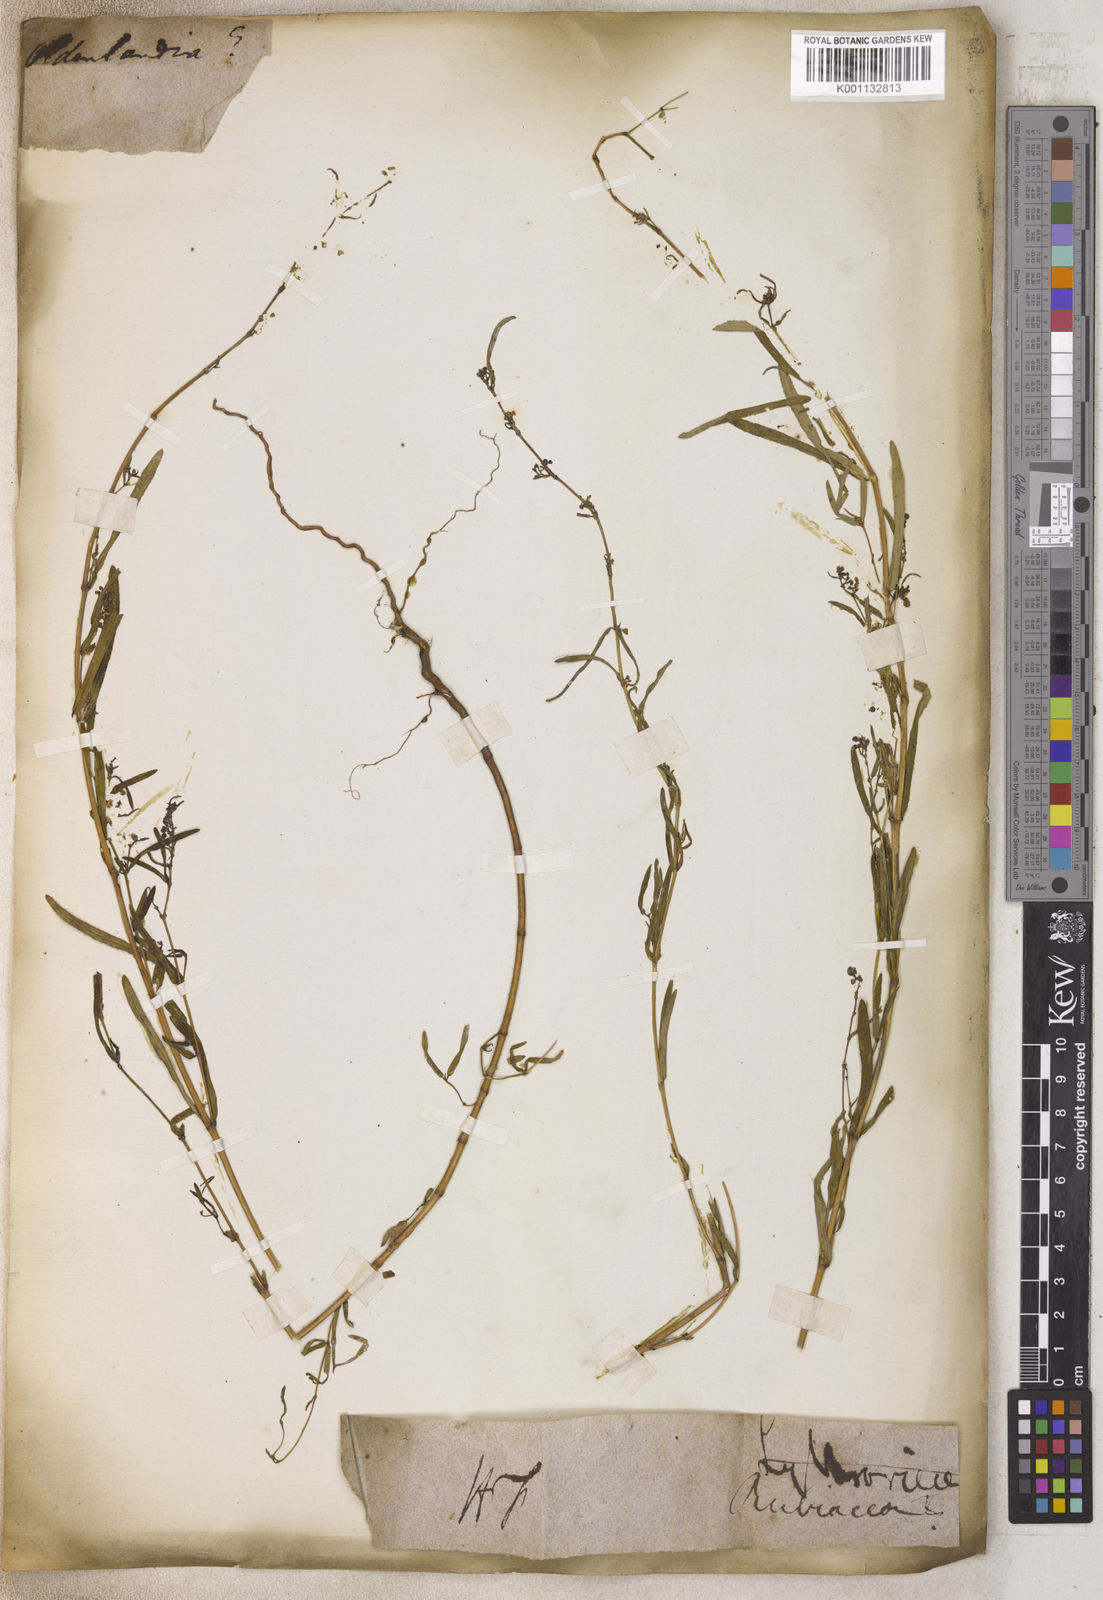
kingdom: Plantae
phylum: Tracheophyta
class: Magnoliopsida
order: Gentianales
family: Rubiaceae
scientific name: Rubiaceae
